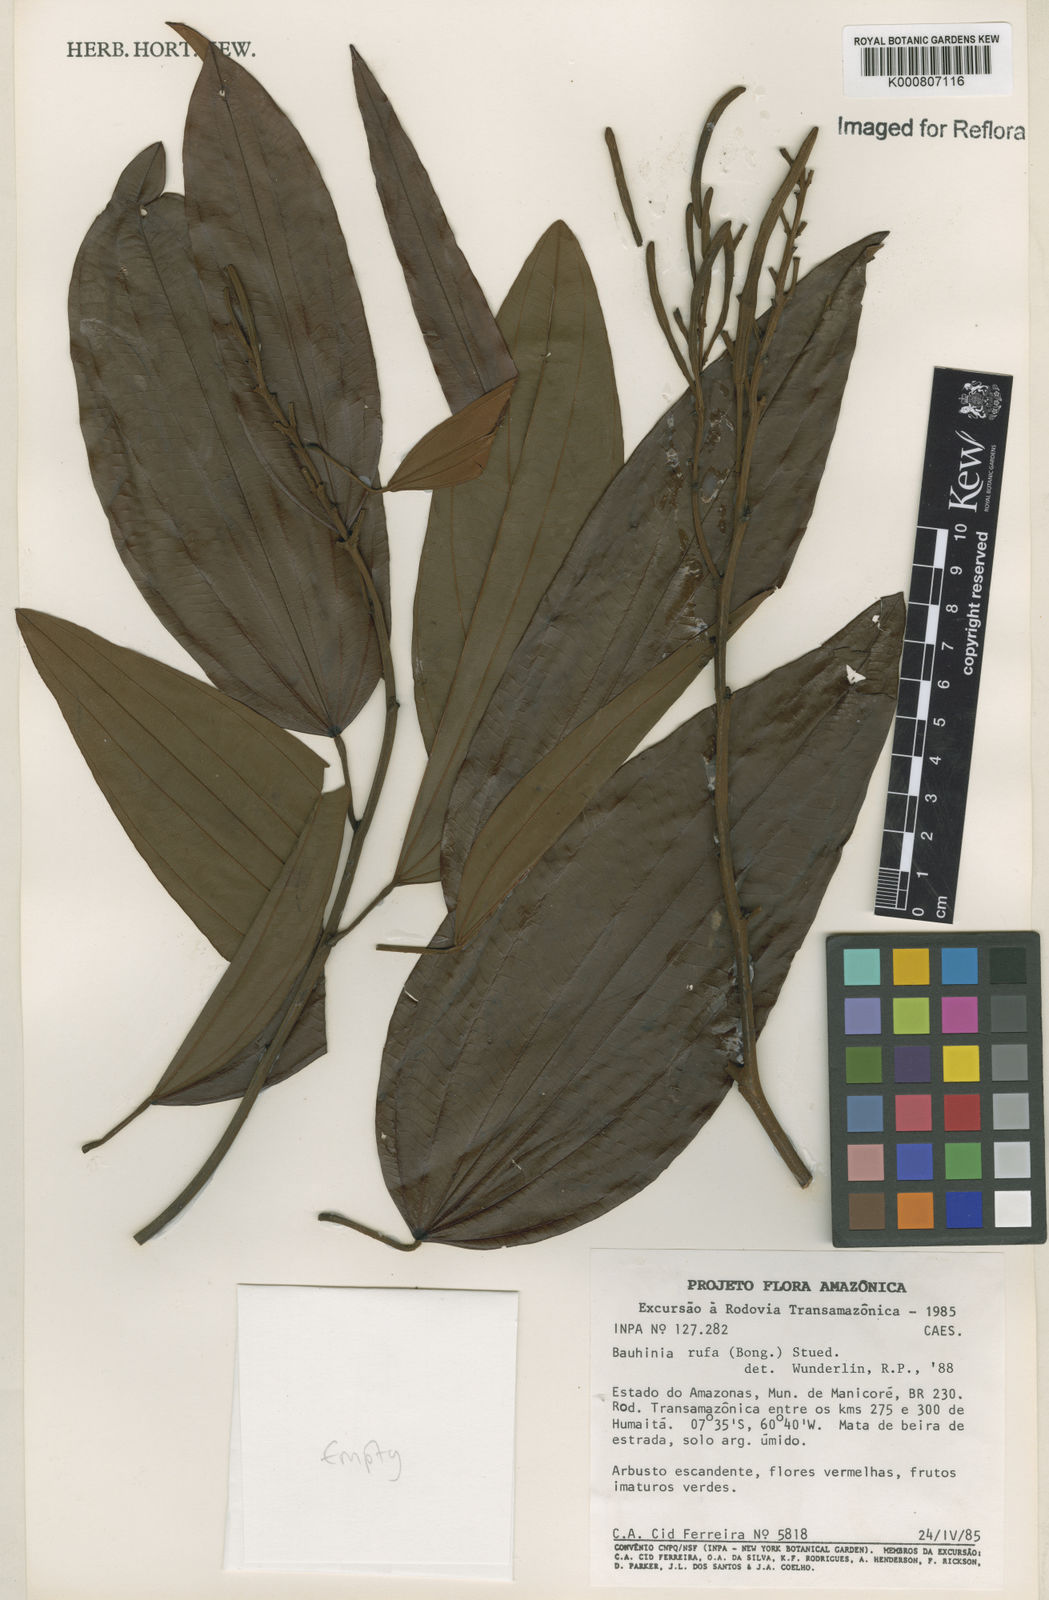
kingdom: Plantae
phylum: Tracheophyta
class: Magnoliopsida
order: Fabales
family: Fabaceae
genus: Bauhinia
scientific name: Bauhinia rufa
